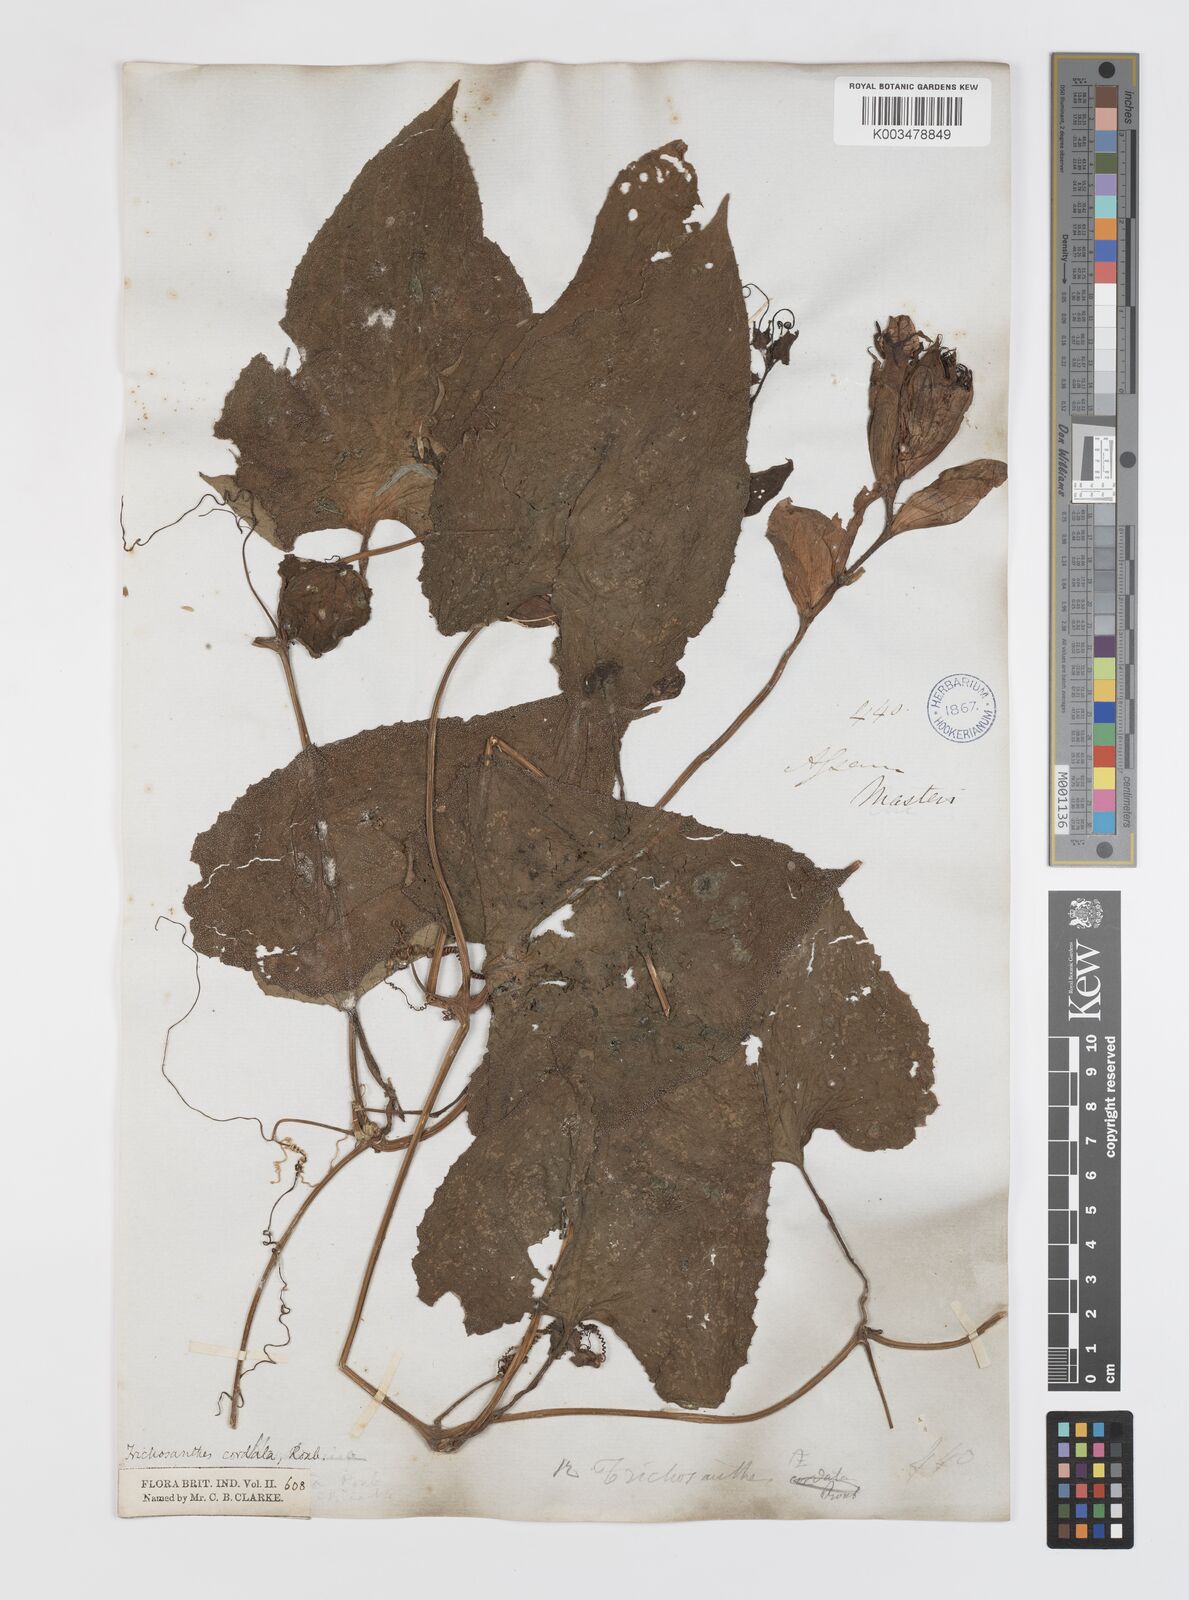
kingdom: Plantae
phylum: Tracheophyta
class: Magnoliopsida
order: Cucurbitales
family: Cucurbitaceae
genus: Trichosanthes
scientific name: Trichosanthes cordata
